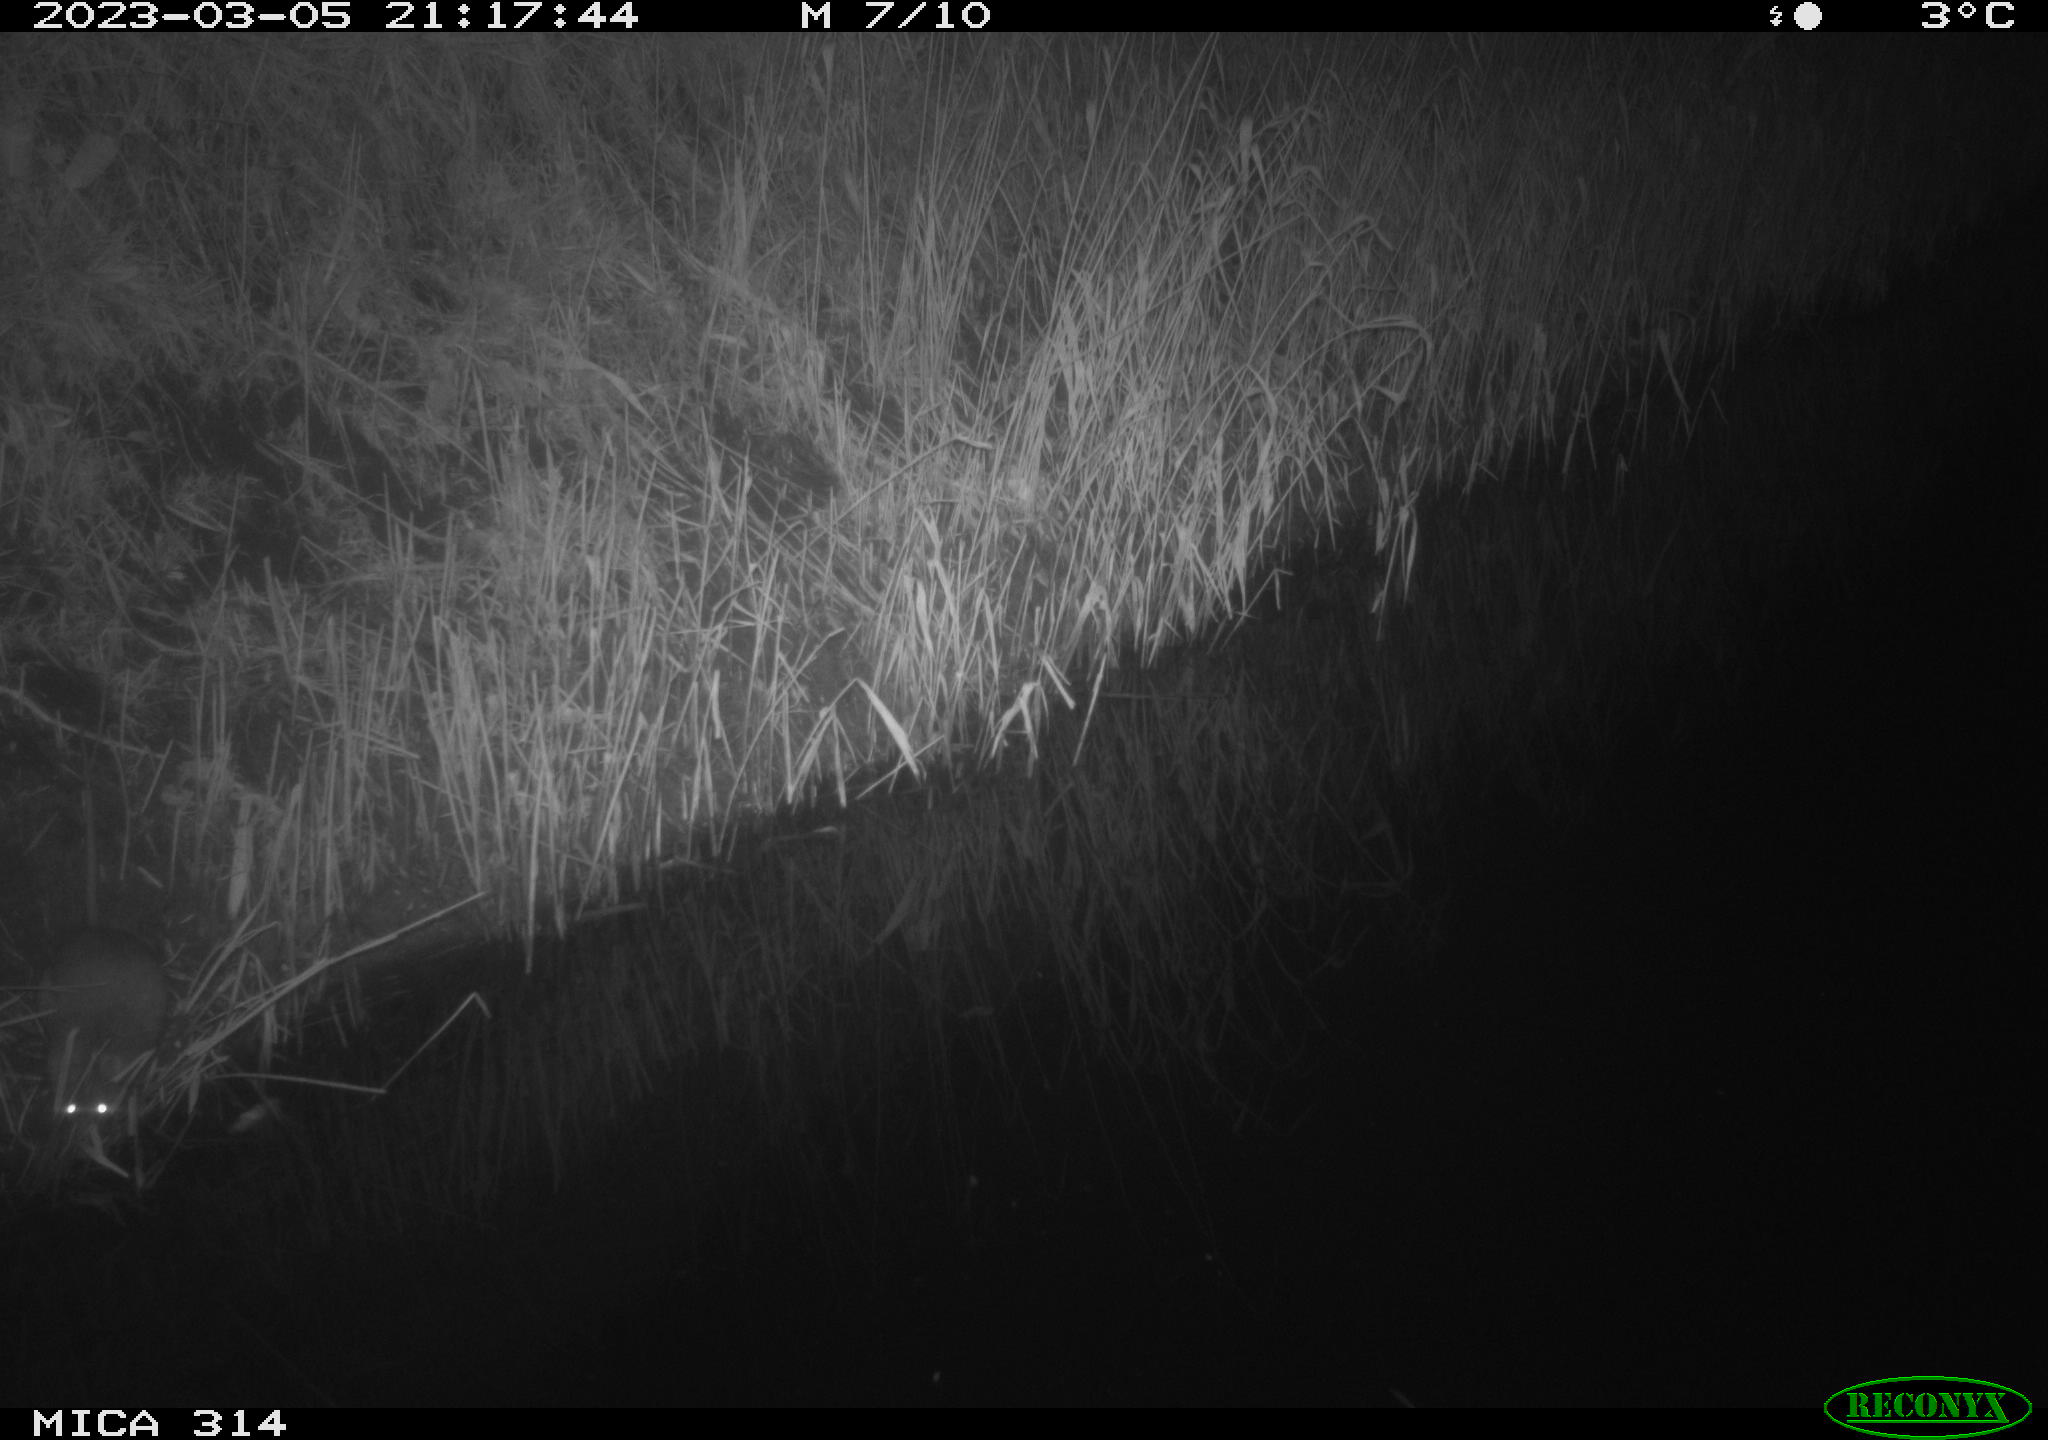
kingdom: Animalia
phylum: Chordata
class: Mammalia
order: Rodentia
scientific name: Rodentia
